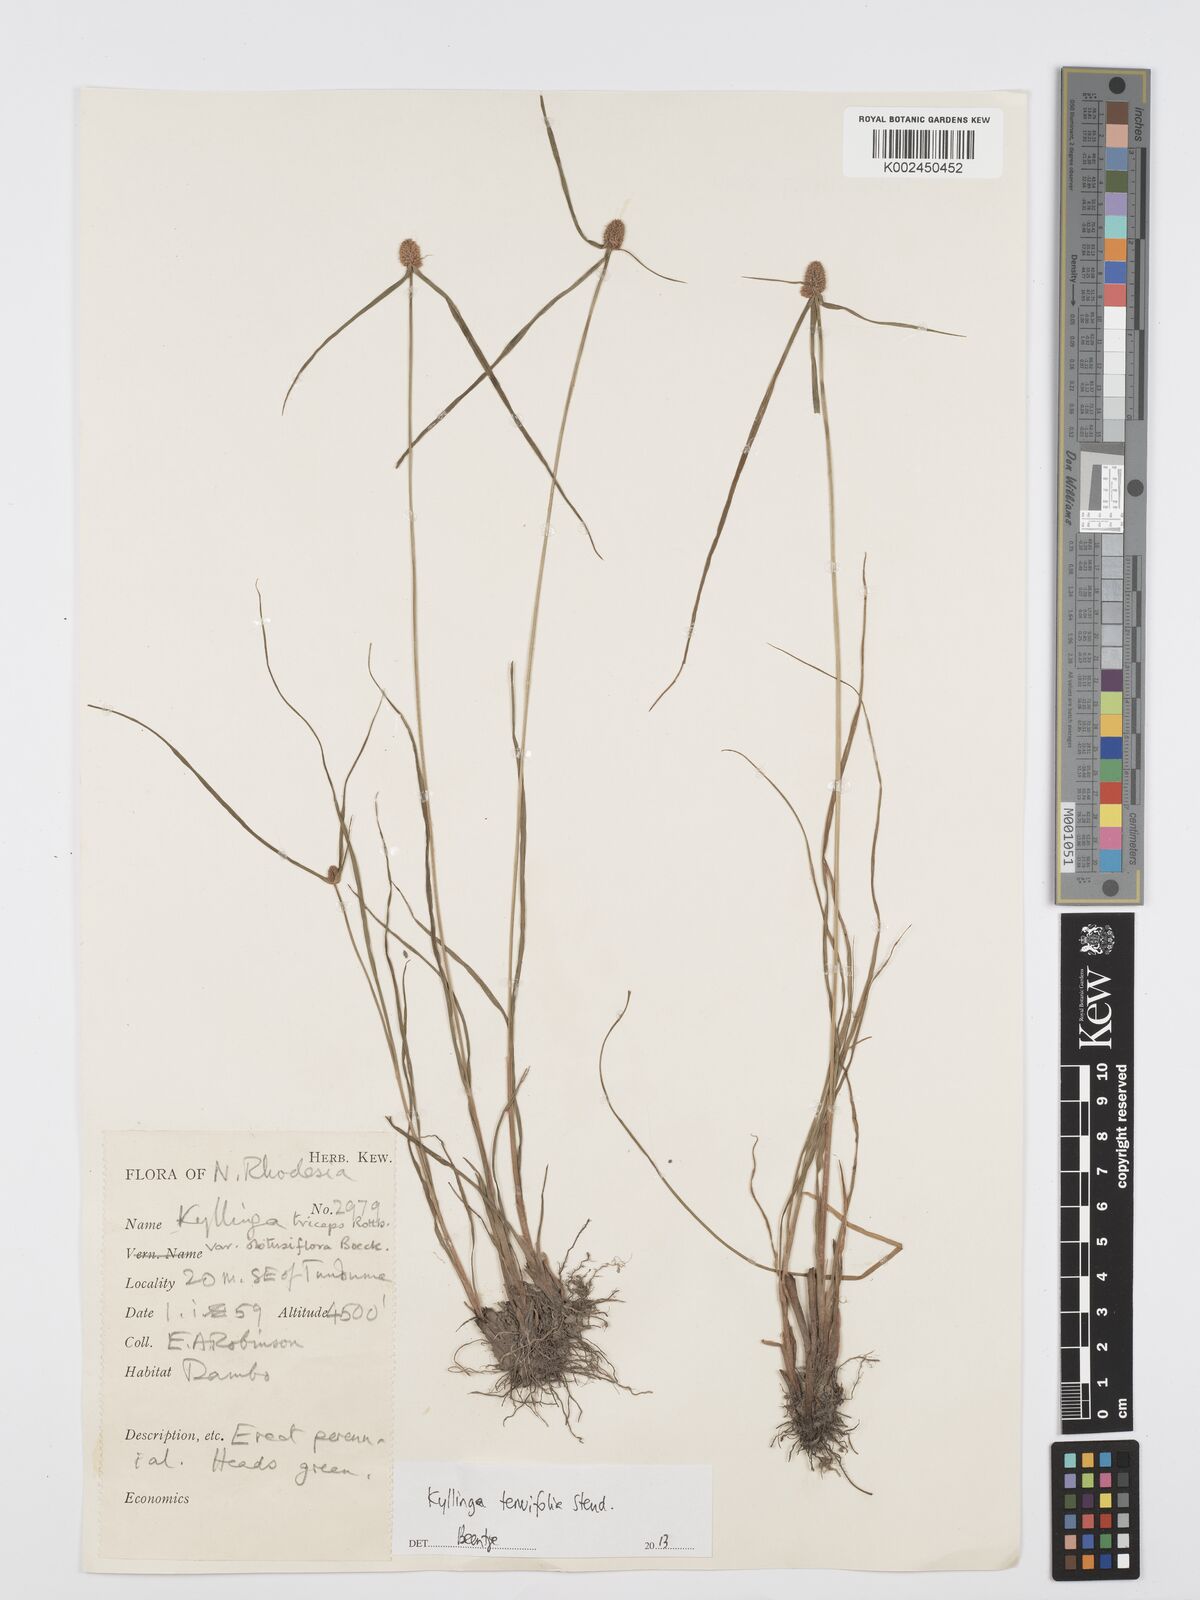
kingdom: Plantae
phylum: Tracheophyta
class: Liliopsida
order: Poales
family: Cyperaceae
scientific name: Cyperaceae
